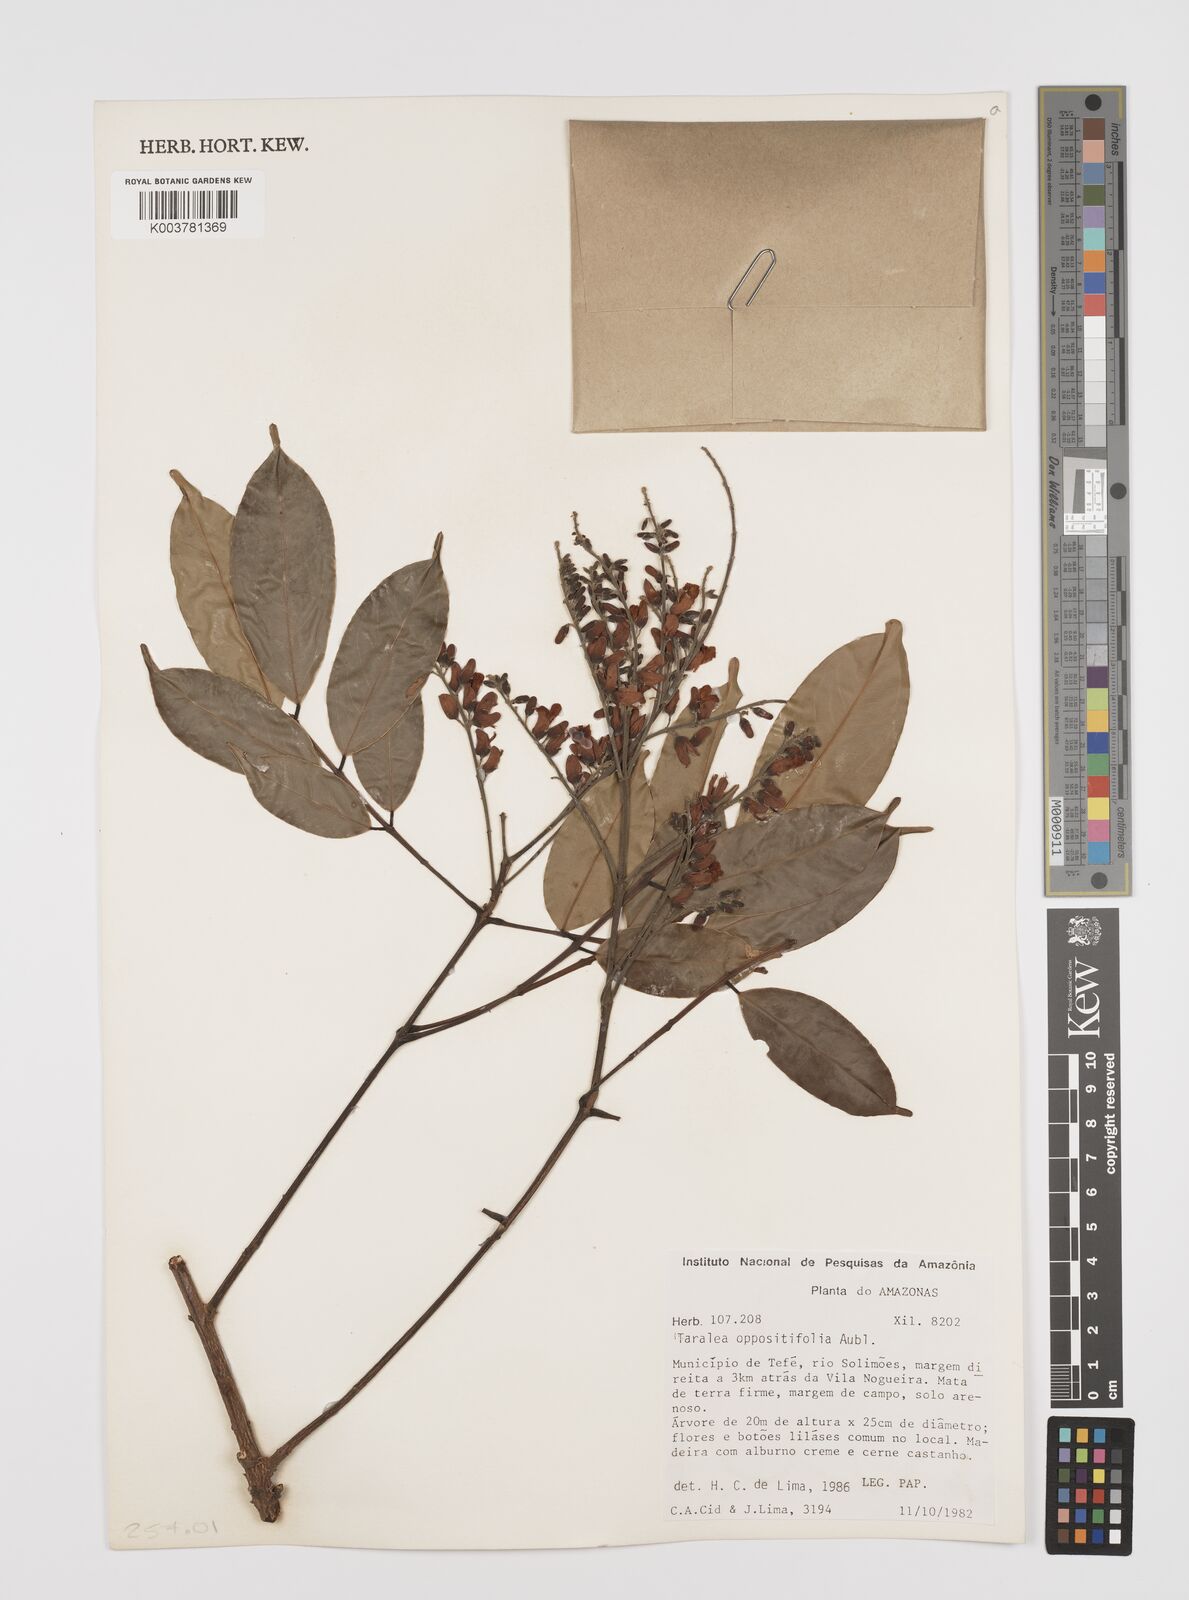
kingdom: Plantae
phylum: Tracheophyta
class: Magnoliopsida
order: Fabales
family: Fabaceae
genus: Taralea
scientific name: Taralea oppositifolia
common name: Tonka
